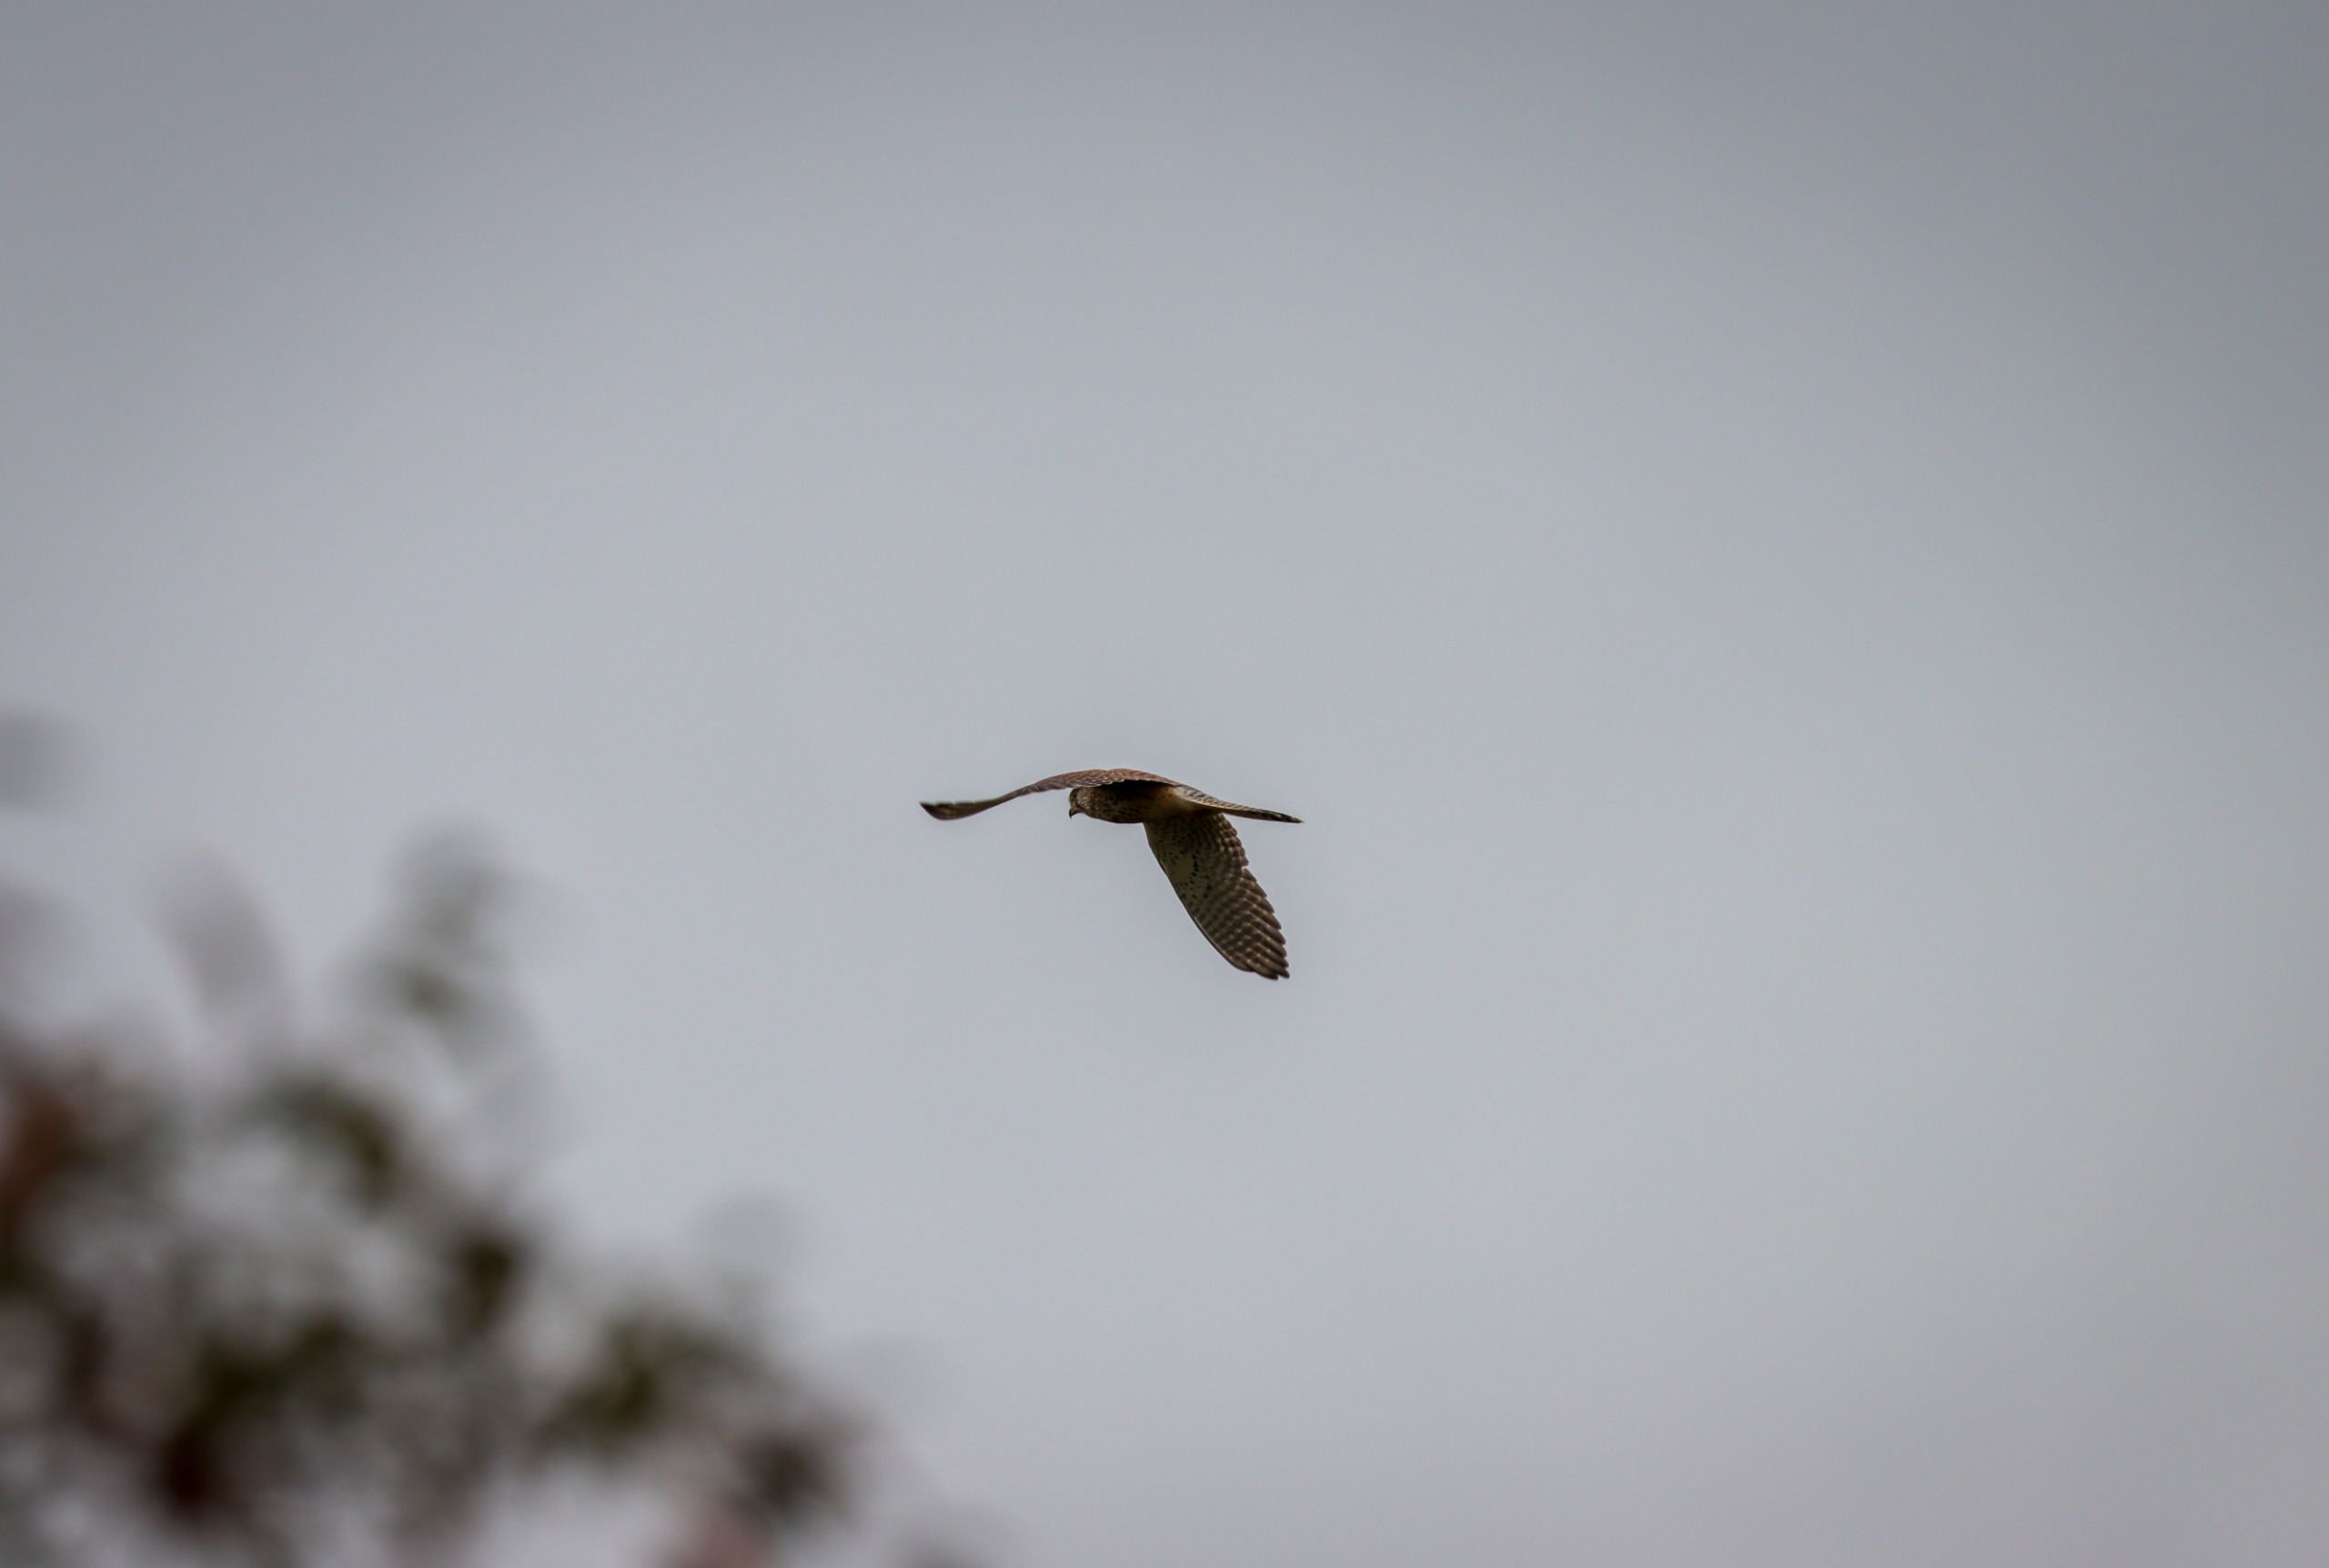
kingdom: Animalia
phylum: Chordata
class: Aves
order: Falconiformes
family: Falconidae
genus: Falco
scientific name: Falco tinnunculus
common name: Tårnfalk
